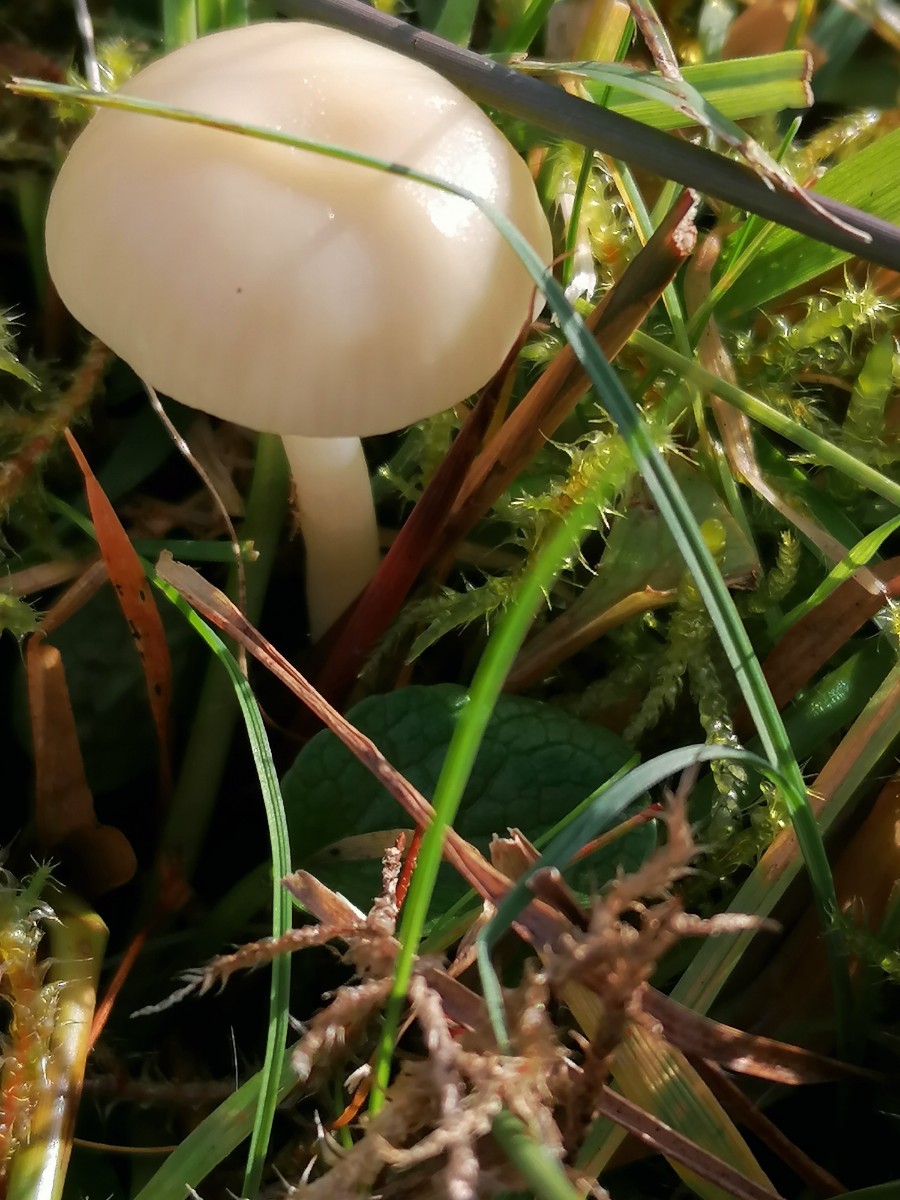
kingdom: Fungi
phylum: Basidiomycota
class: Agaricomycetes
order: Agaricales
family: Hygrophoraceae
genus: Cuphophyllus
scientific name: Cuphophyllus russocoriaceus
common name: ruslæder-vokshat
